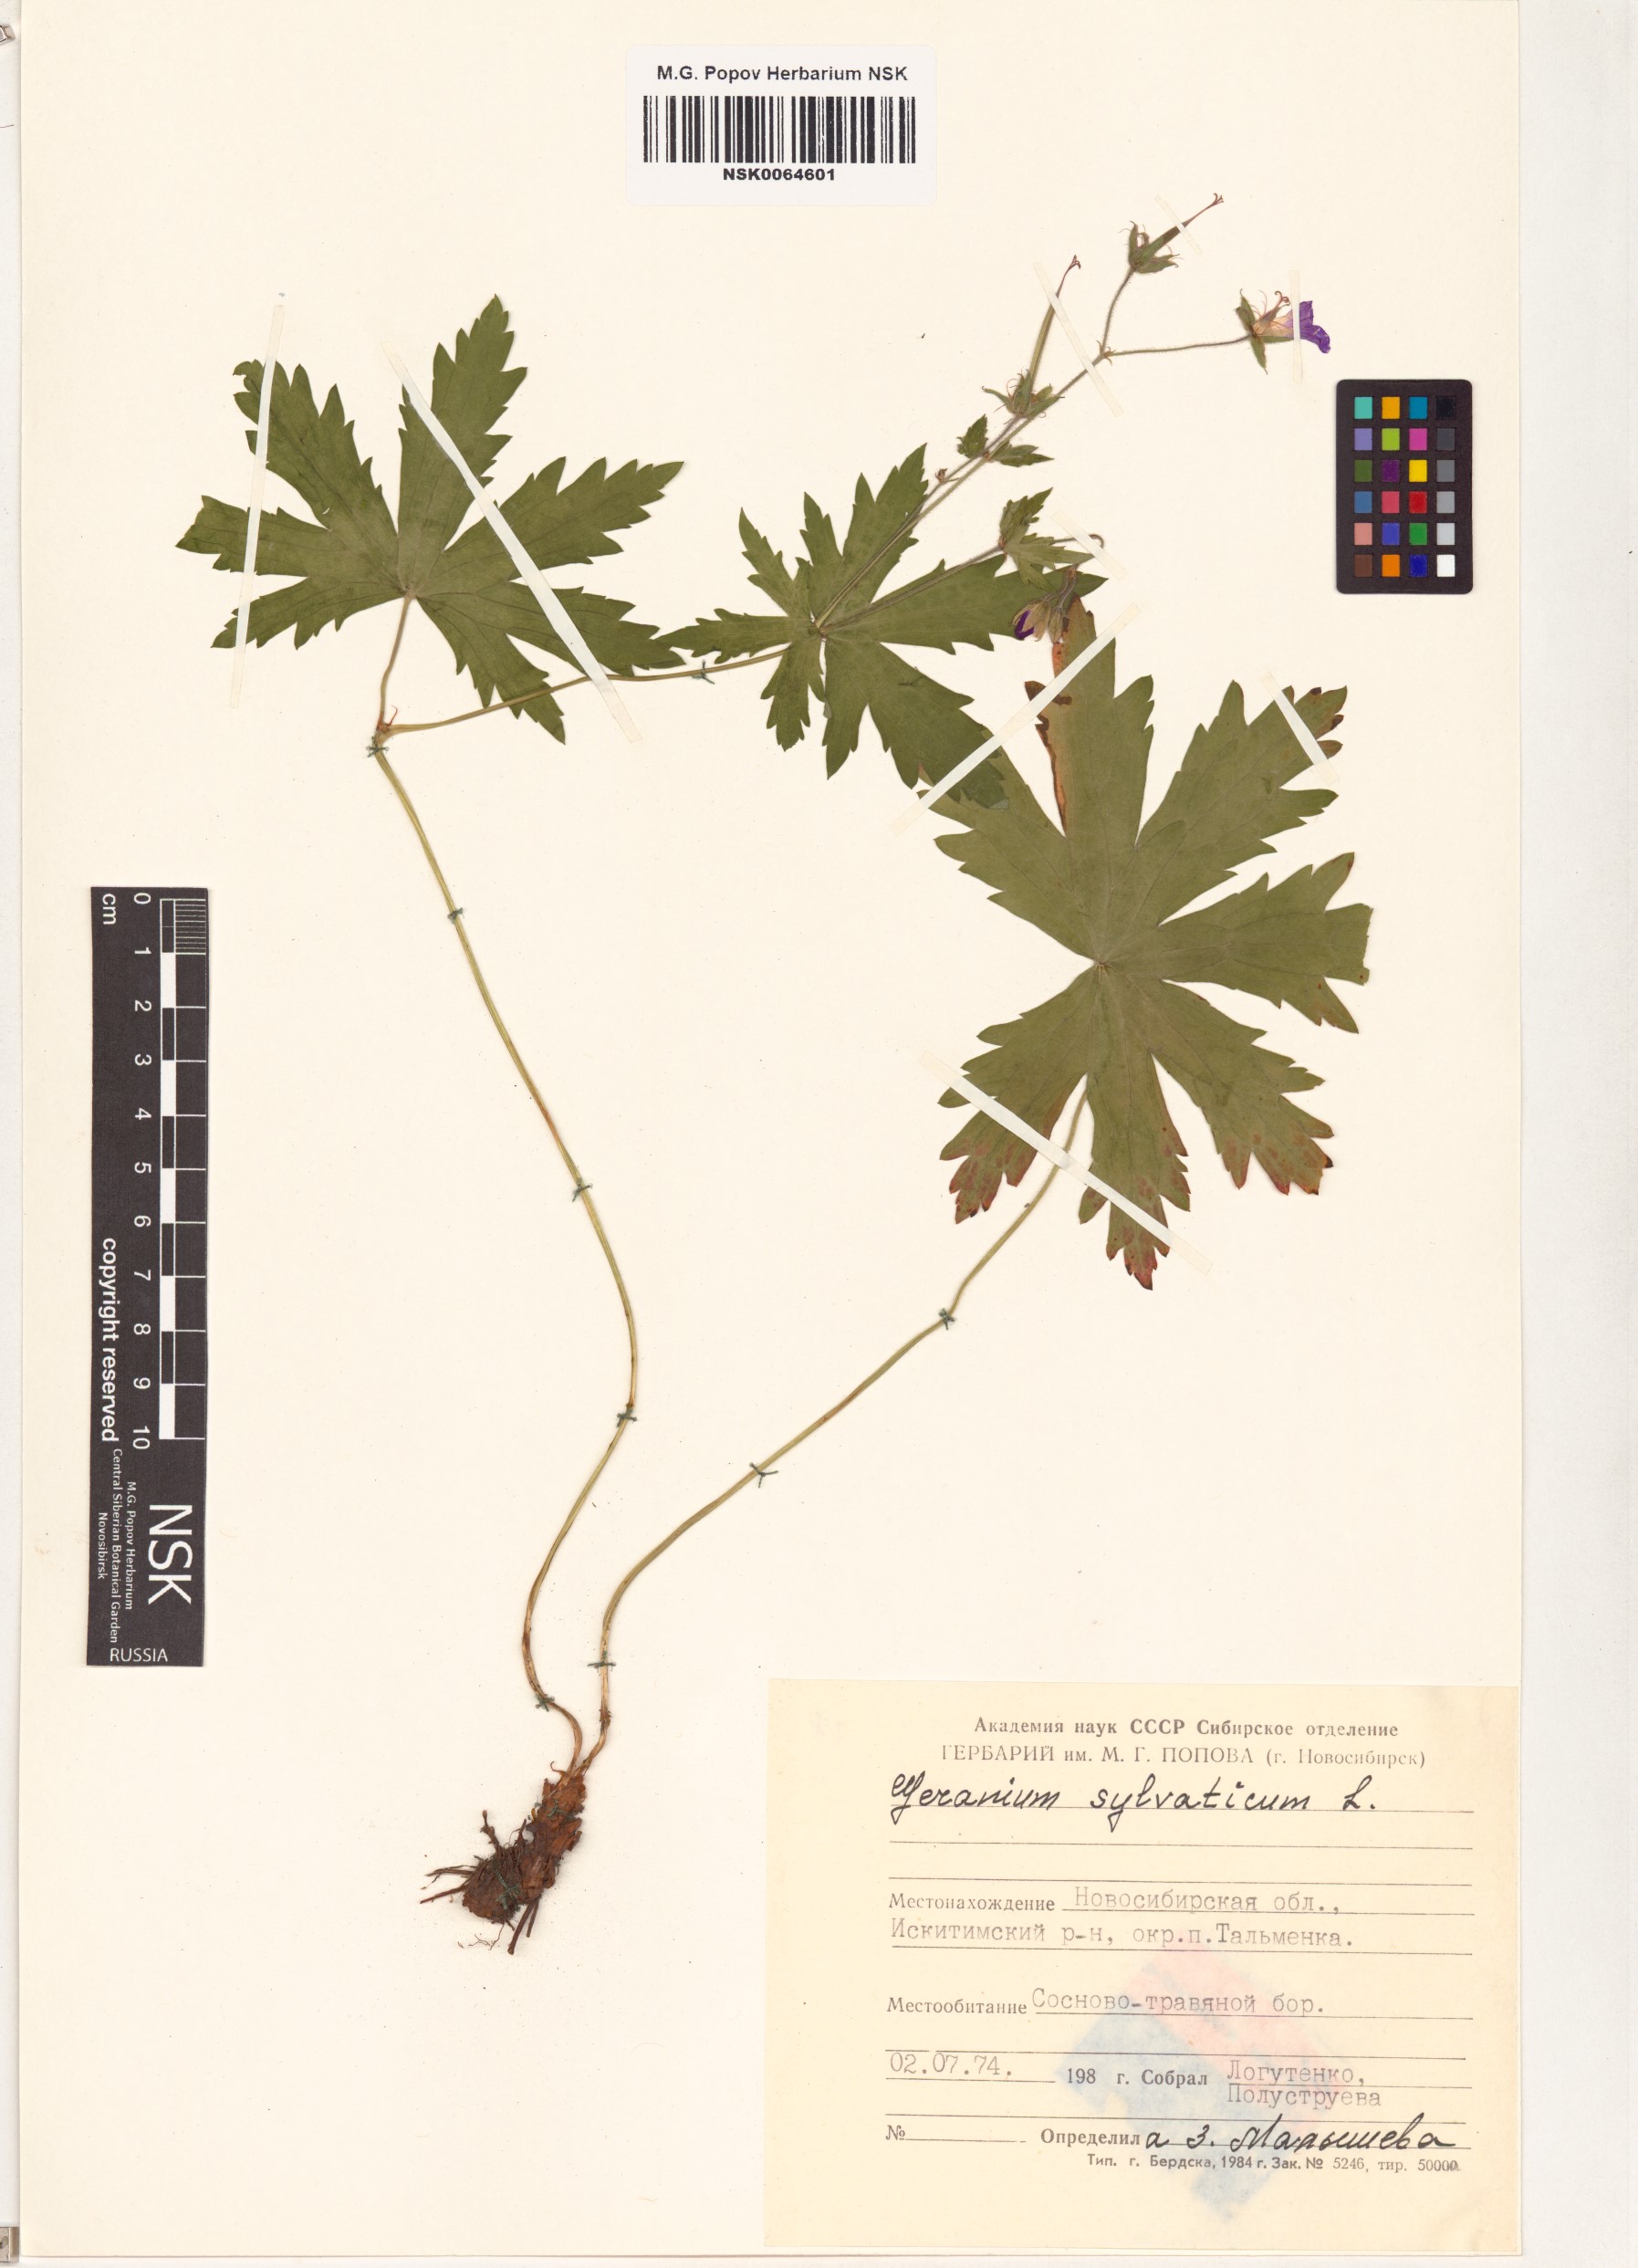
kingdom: Plantae
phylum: Tracheophyta
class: Magnoliopsida
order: Geraniales
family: Geraniaceae
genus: Geranium
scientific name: Geranium sylvaticum
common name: Wood crane's-bill
